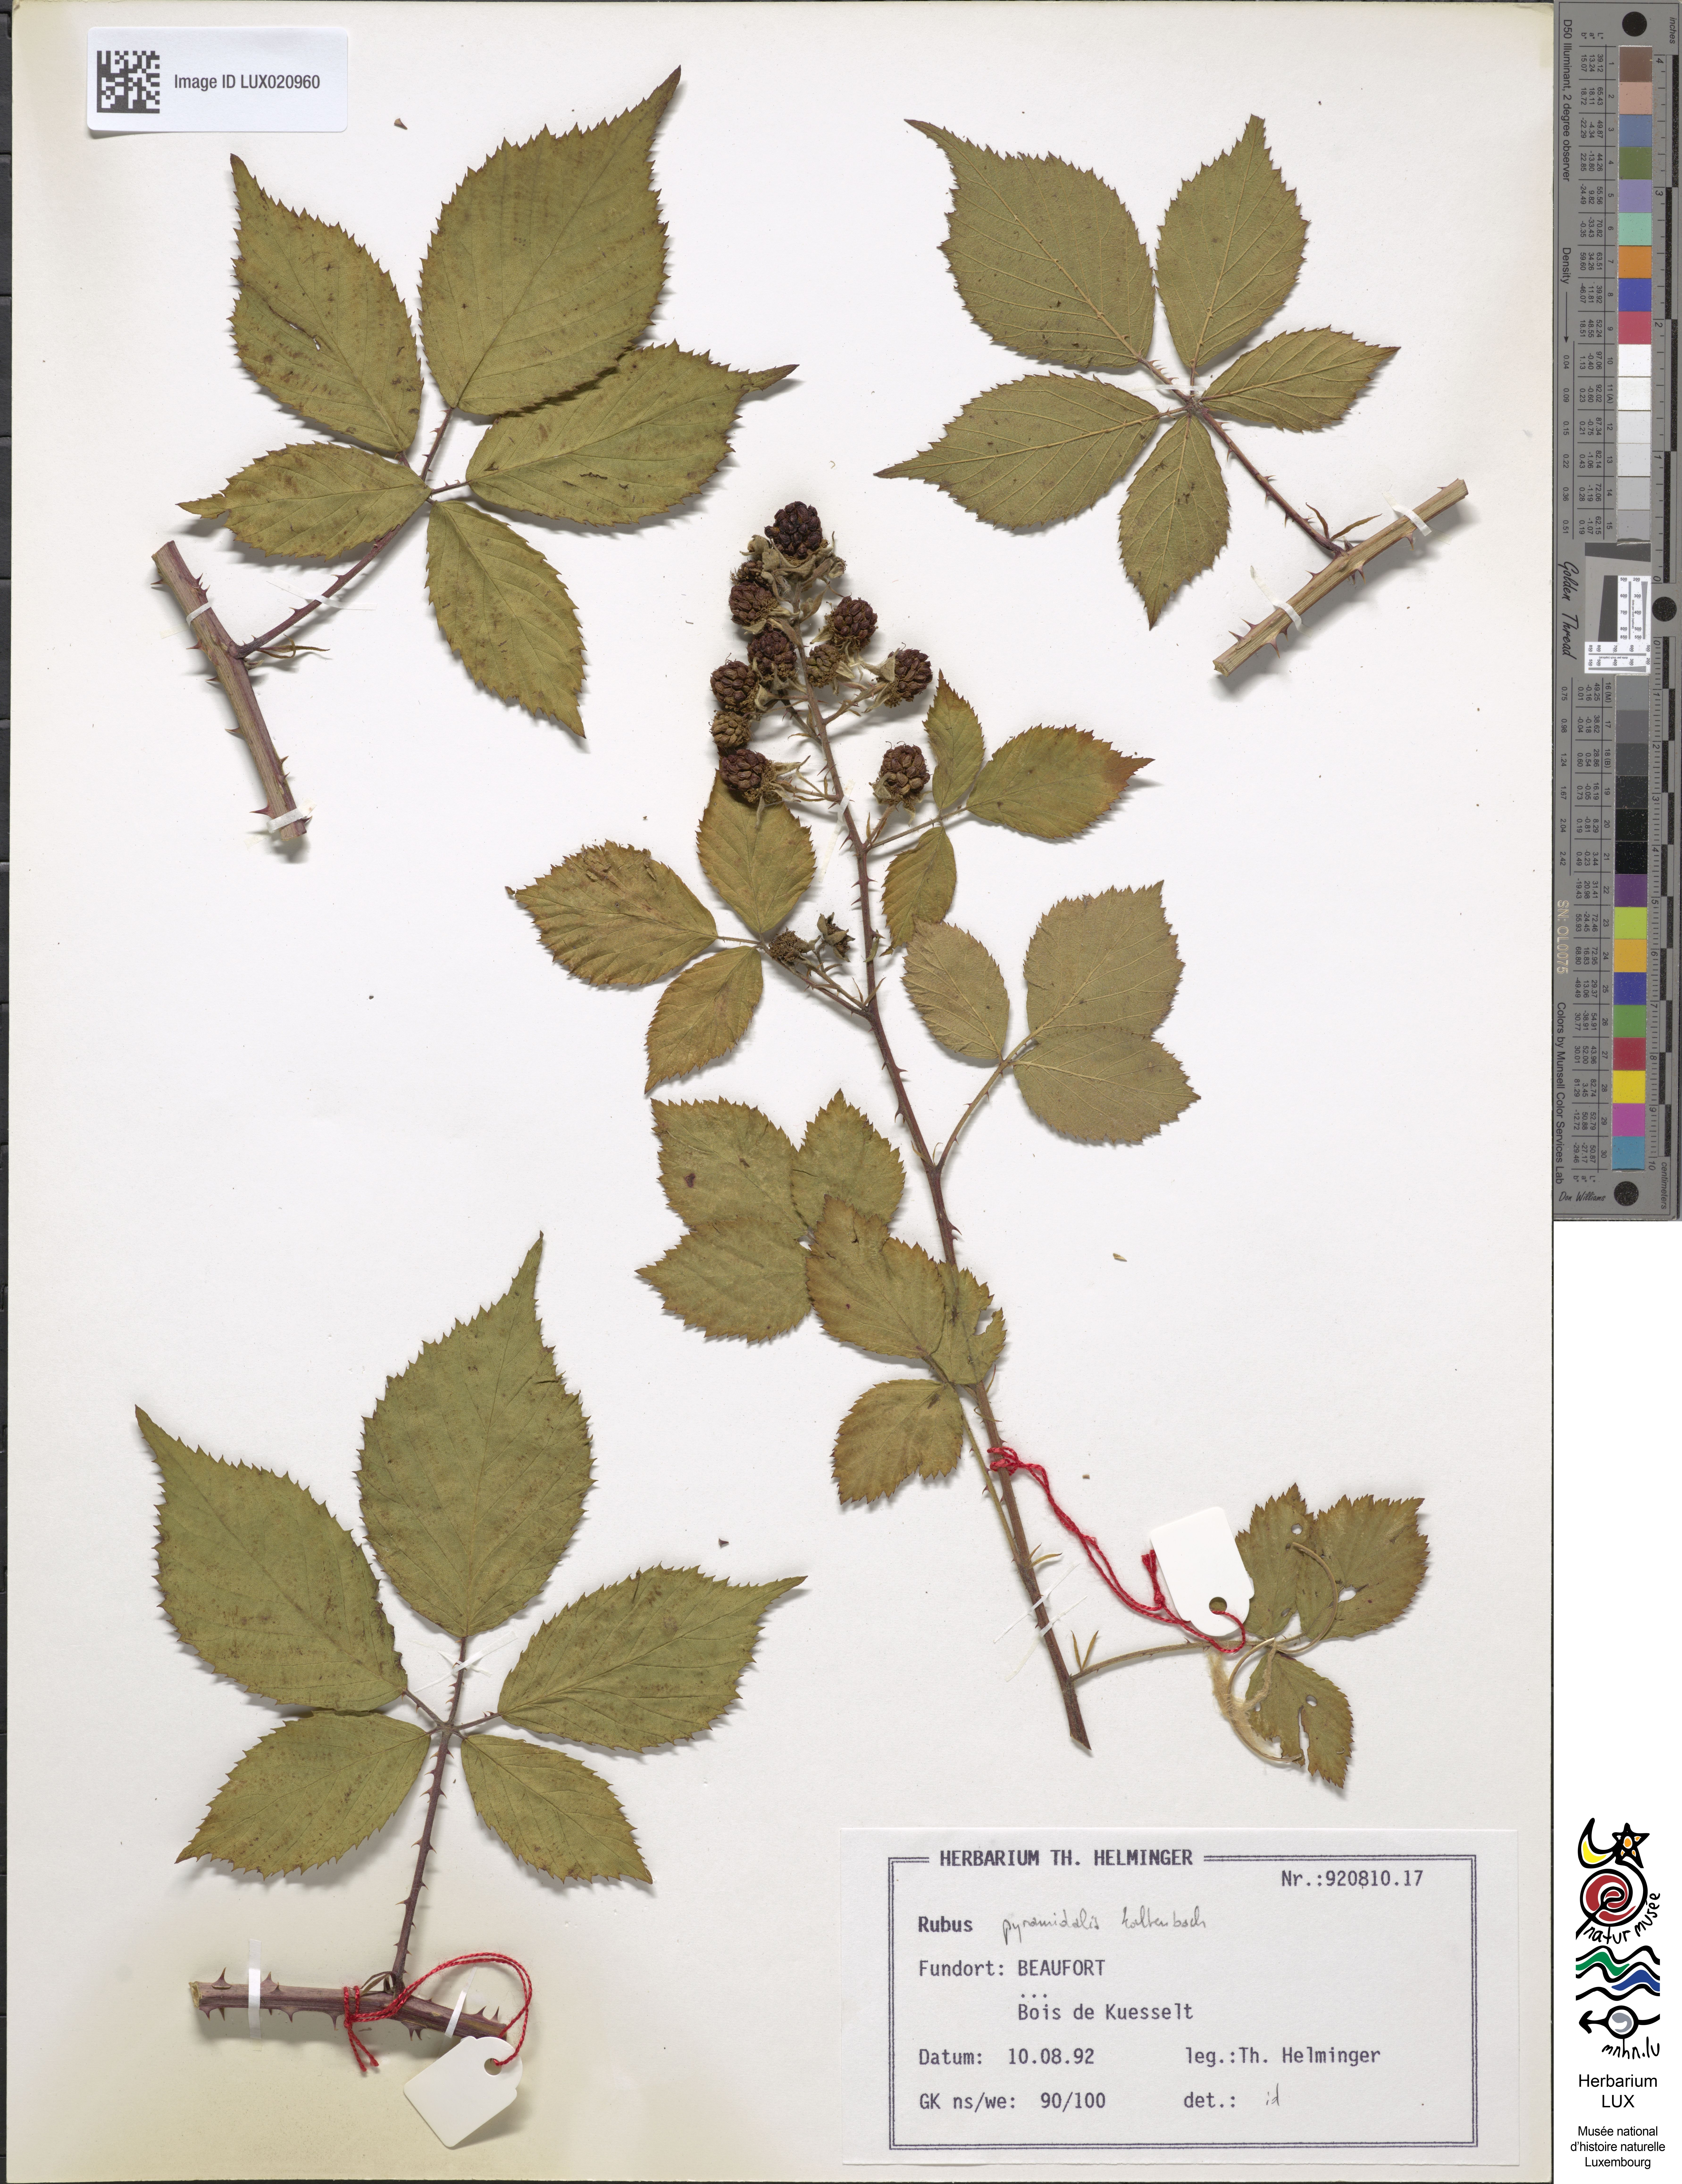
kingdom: Plantae
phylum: Tracheophyta
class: Magnoliopsida
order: Rosales
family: Rosaceae
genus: Rubus
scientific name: Rubus umbrosus
